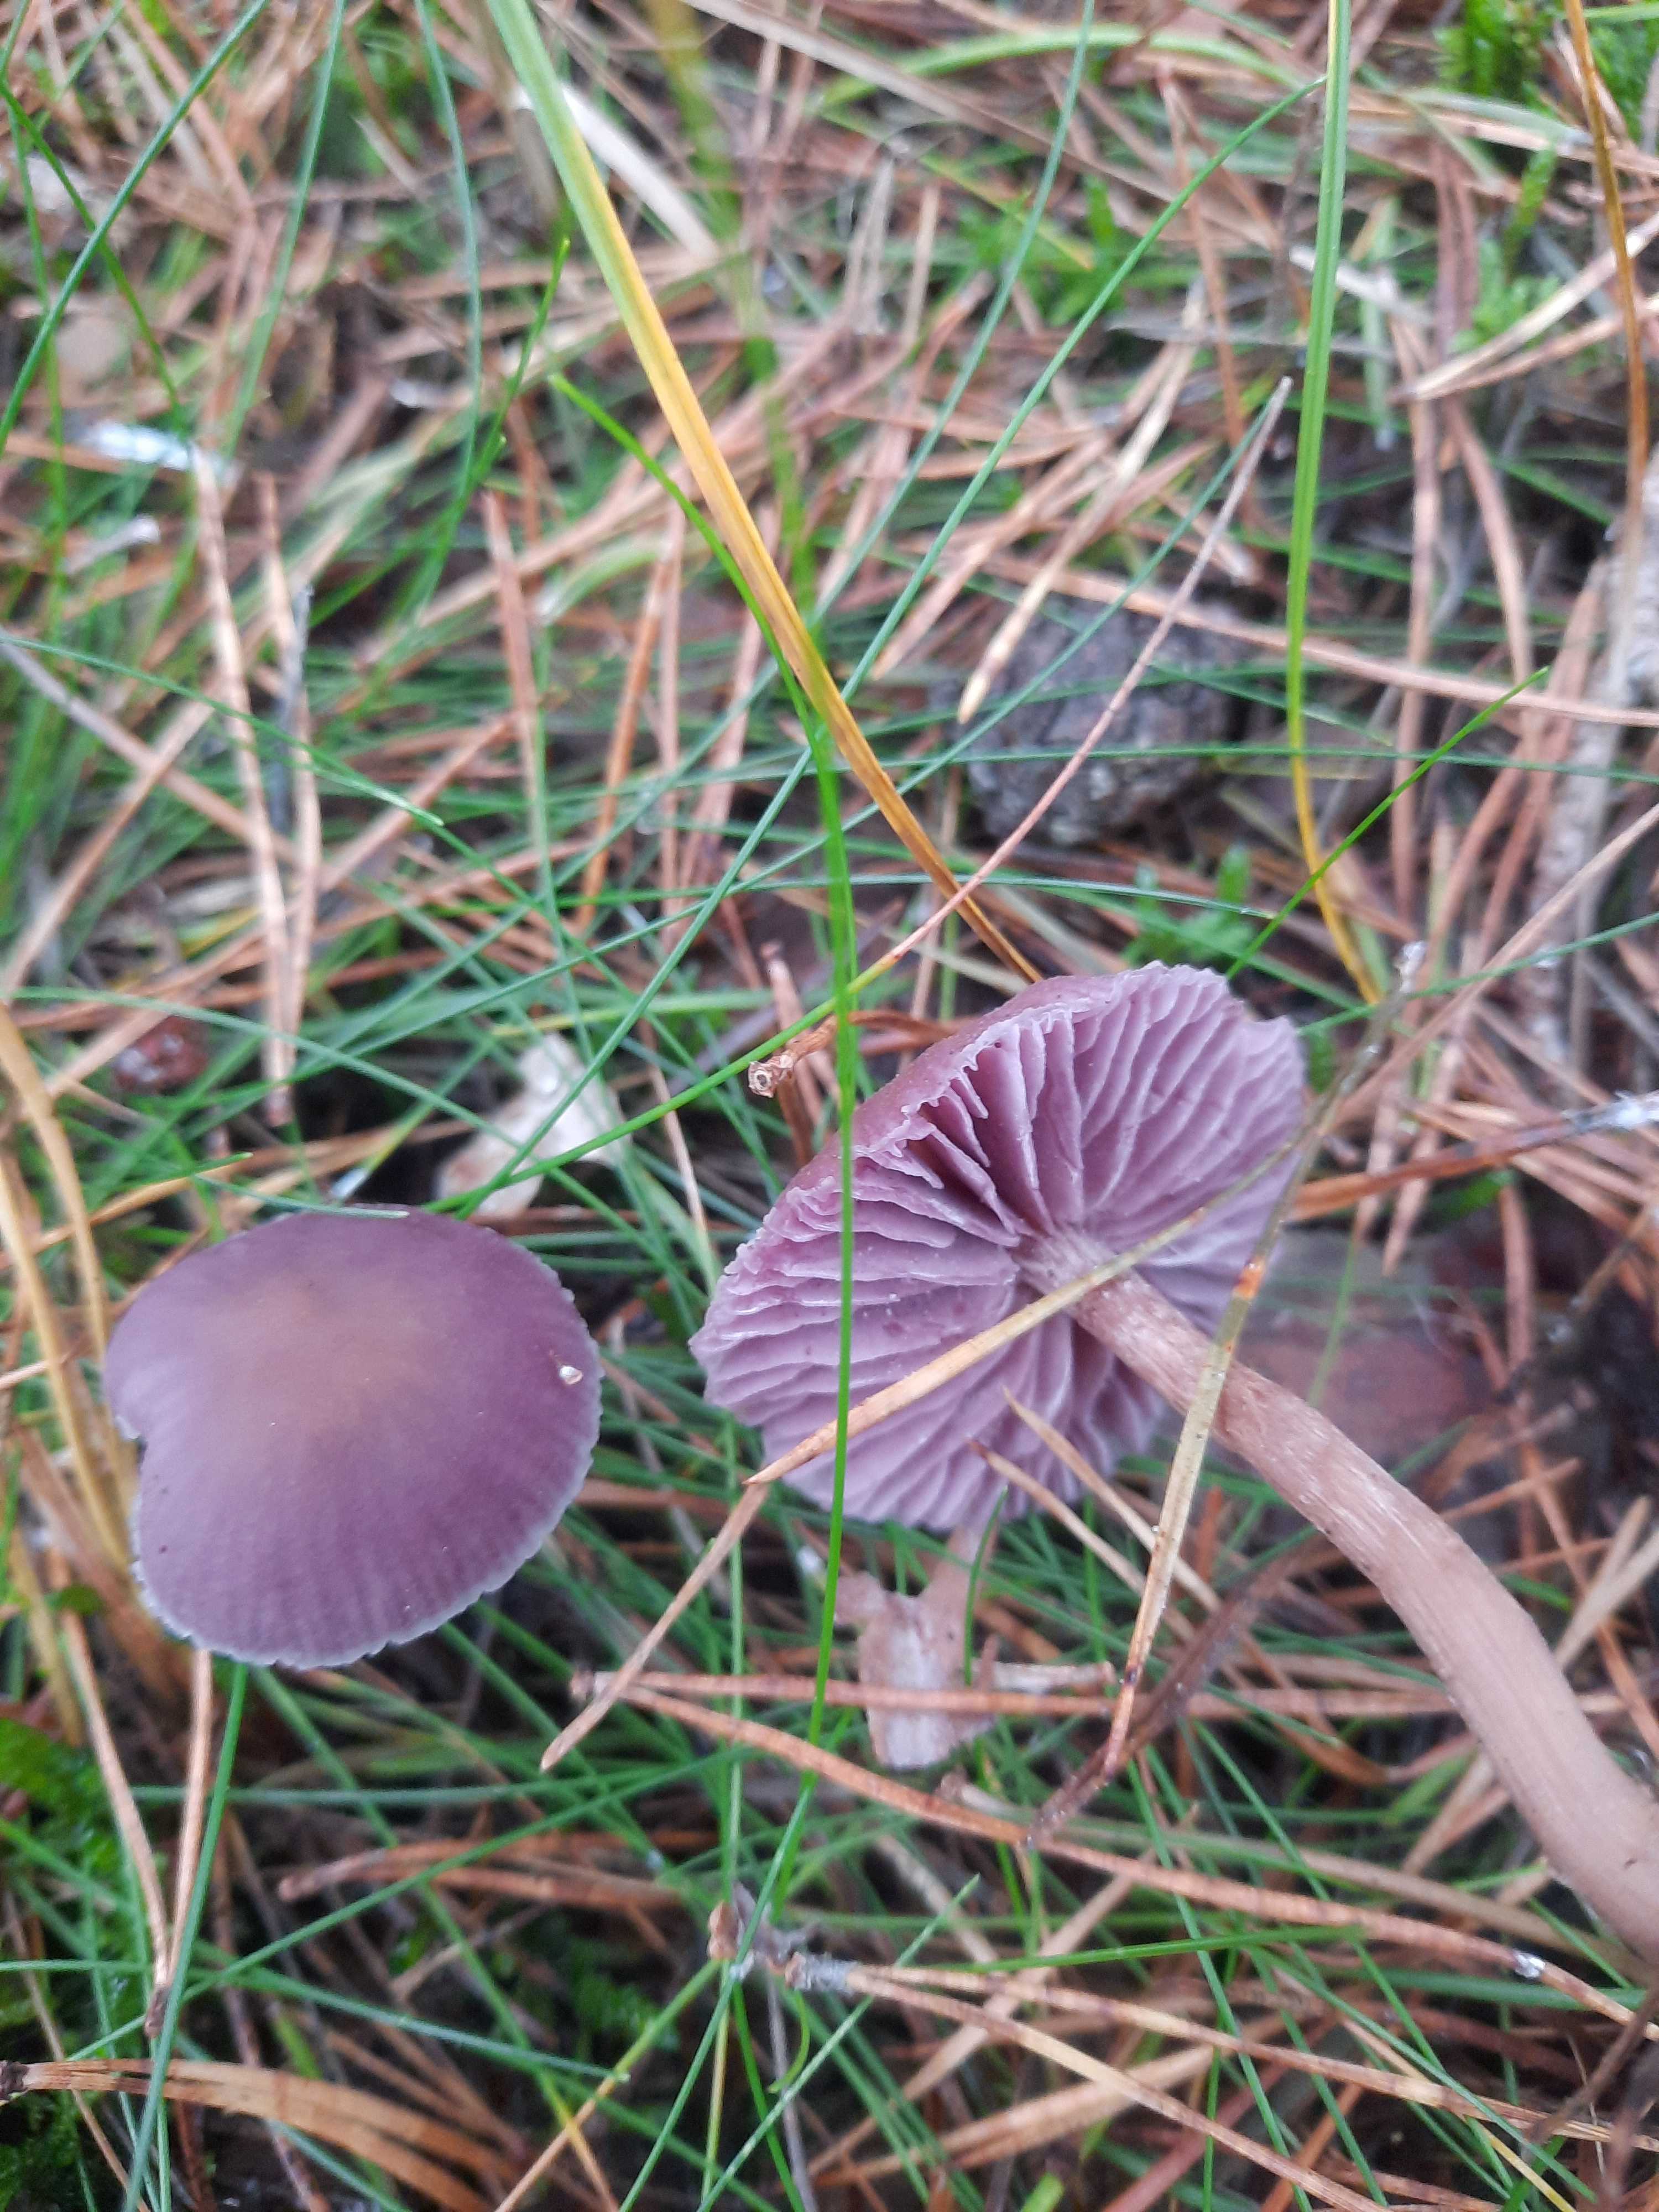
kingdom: Fungi
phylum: Basidiomycota
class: Agaricomycetes
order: Agaricales
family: Hydnangiaceae
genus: Laccaria
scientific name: Laccaria amethystina
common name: violet ametysthat
